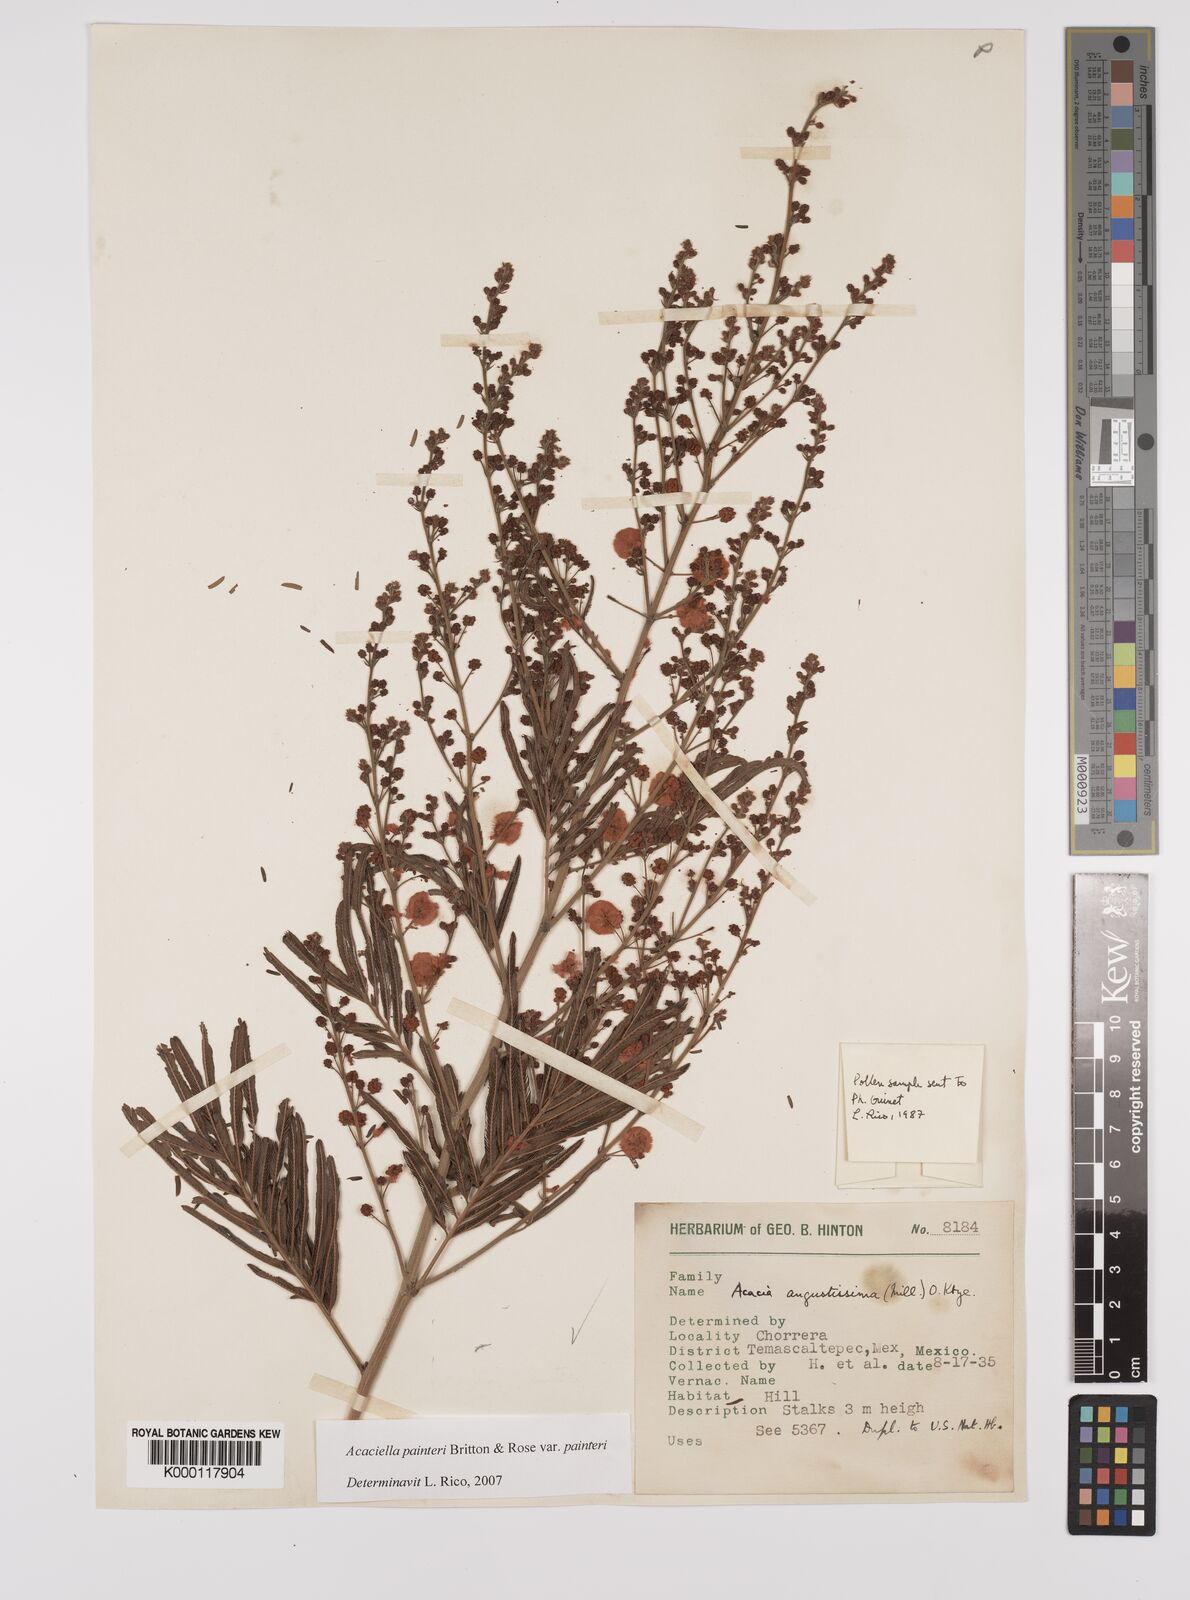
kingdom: Plantae
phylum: Tracheophyta
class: Magnoliopsida
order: Fabales
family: Fabaceae
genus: Acaciella
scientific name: Acaciella painteri
